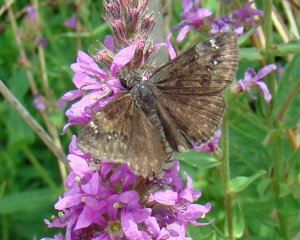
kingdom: Animalia
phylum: Arthropoda
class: Insecta
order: Lepidoptera
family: Hesperiidae
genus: Gesta
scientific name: Gesta
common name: Wild Indigo Duskywing
